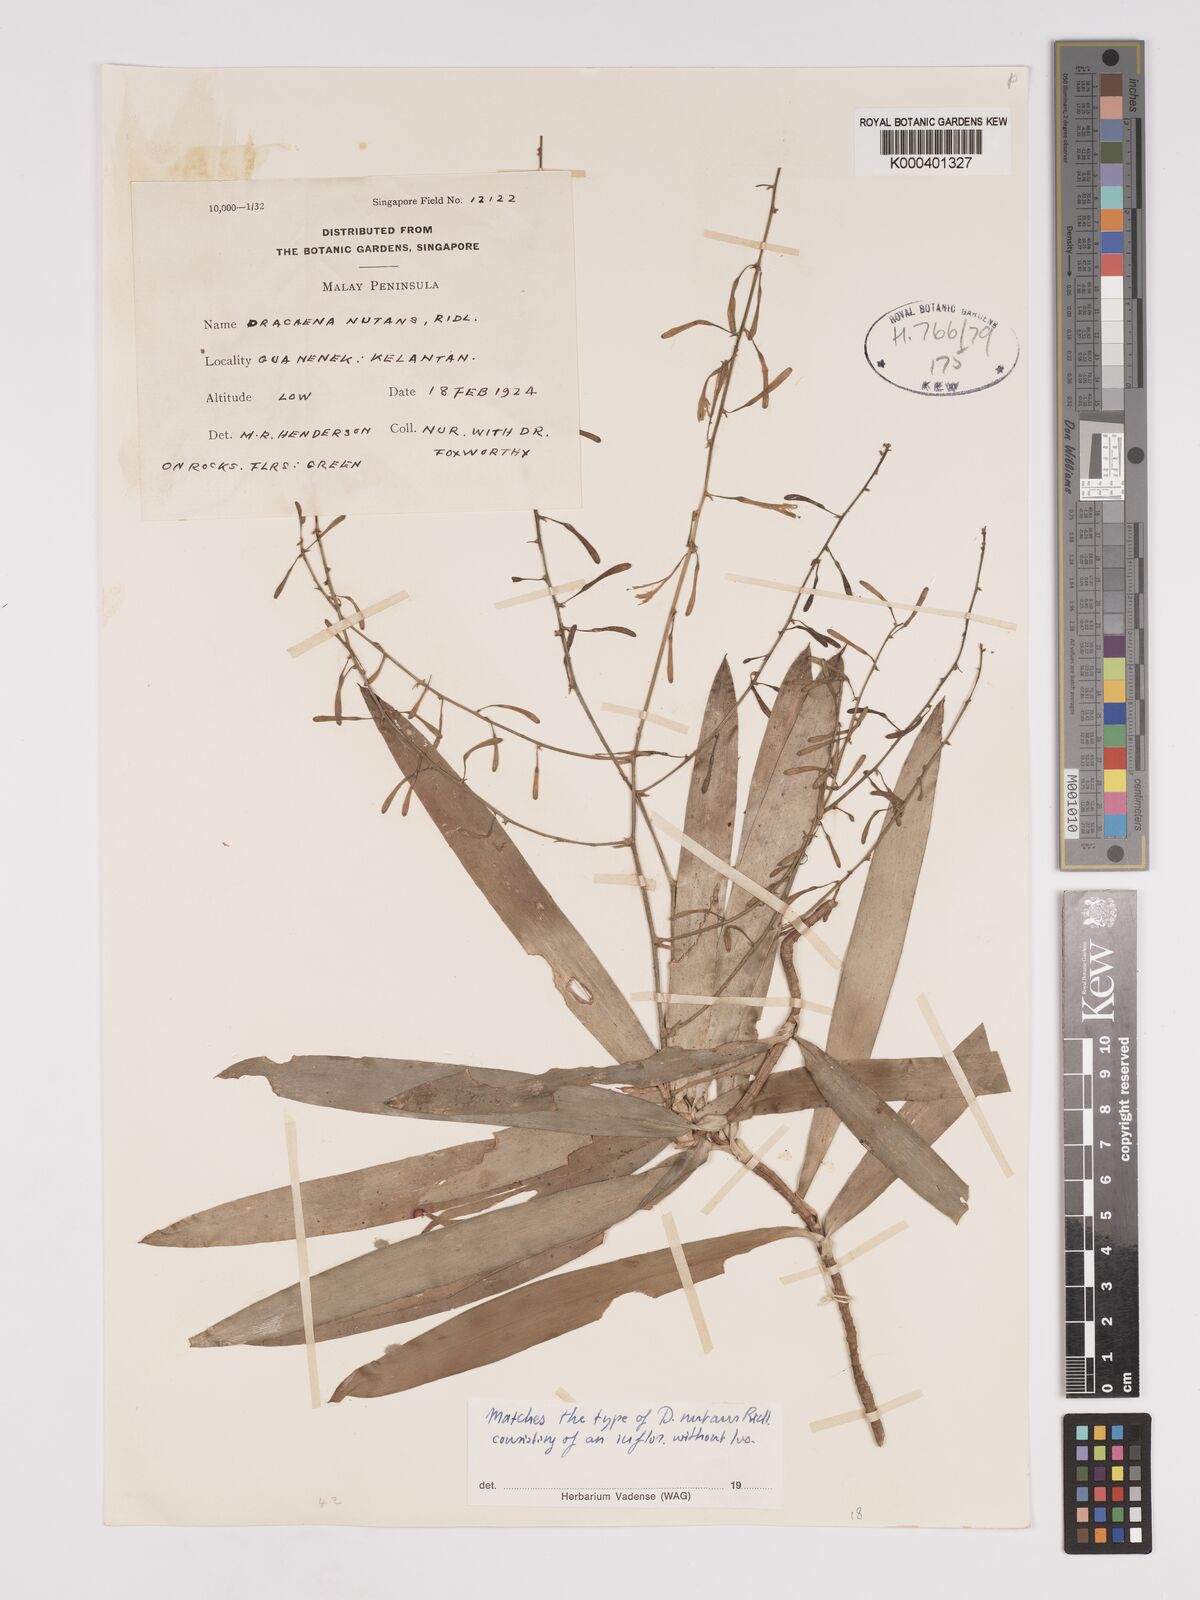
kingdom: Plantae
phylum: Tracheophyta
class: Liliopsida
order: Asparagales
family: Asparagaceae
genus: Dracaena
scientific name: Dracaena nutans
